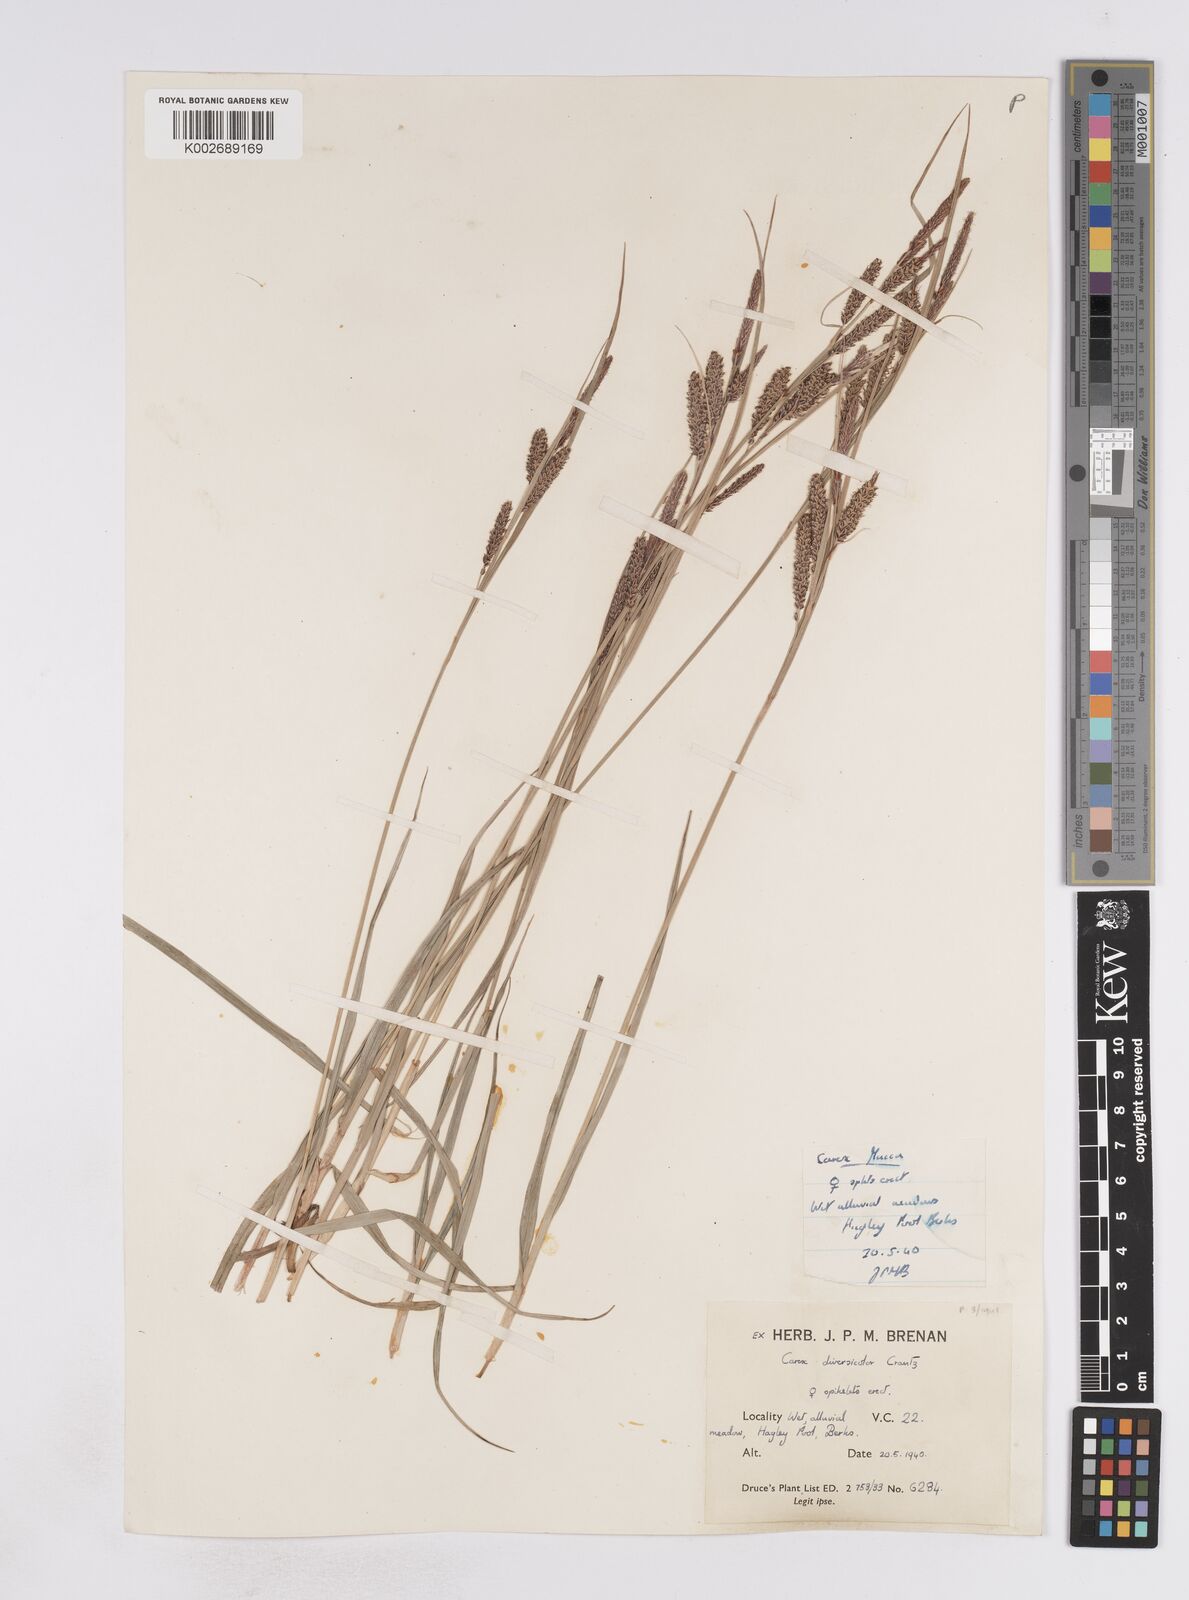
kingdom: Plantae
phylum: Tracheophyta
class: Liliopsida
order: Poales
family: Cyperaceae
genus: Carex
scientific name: Carex flacca
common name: Glaucous sedge
